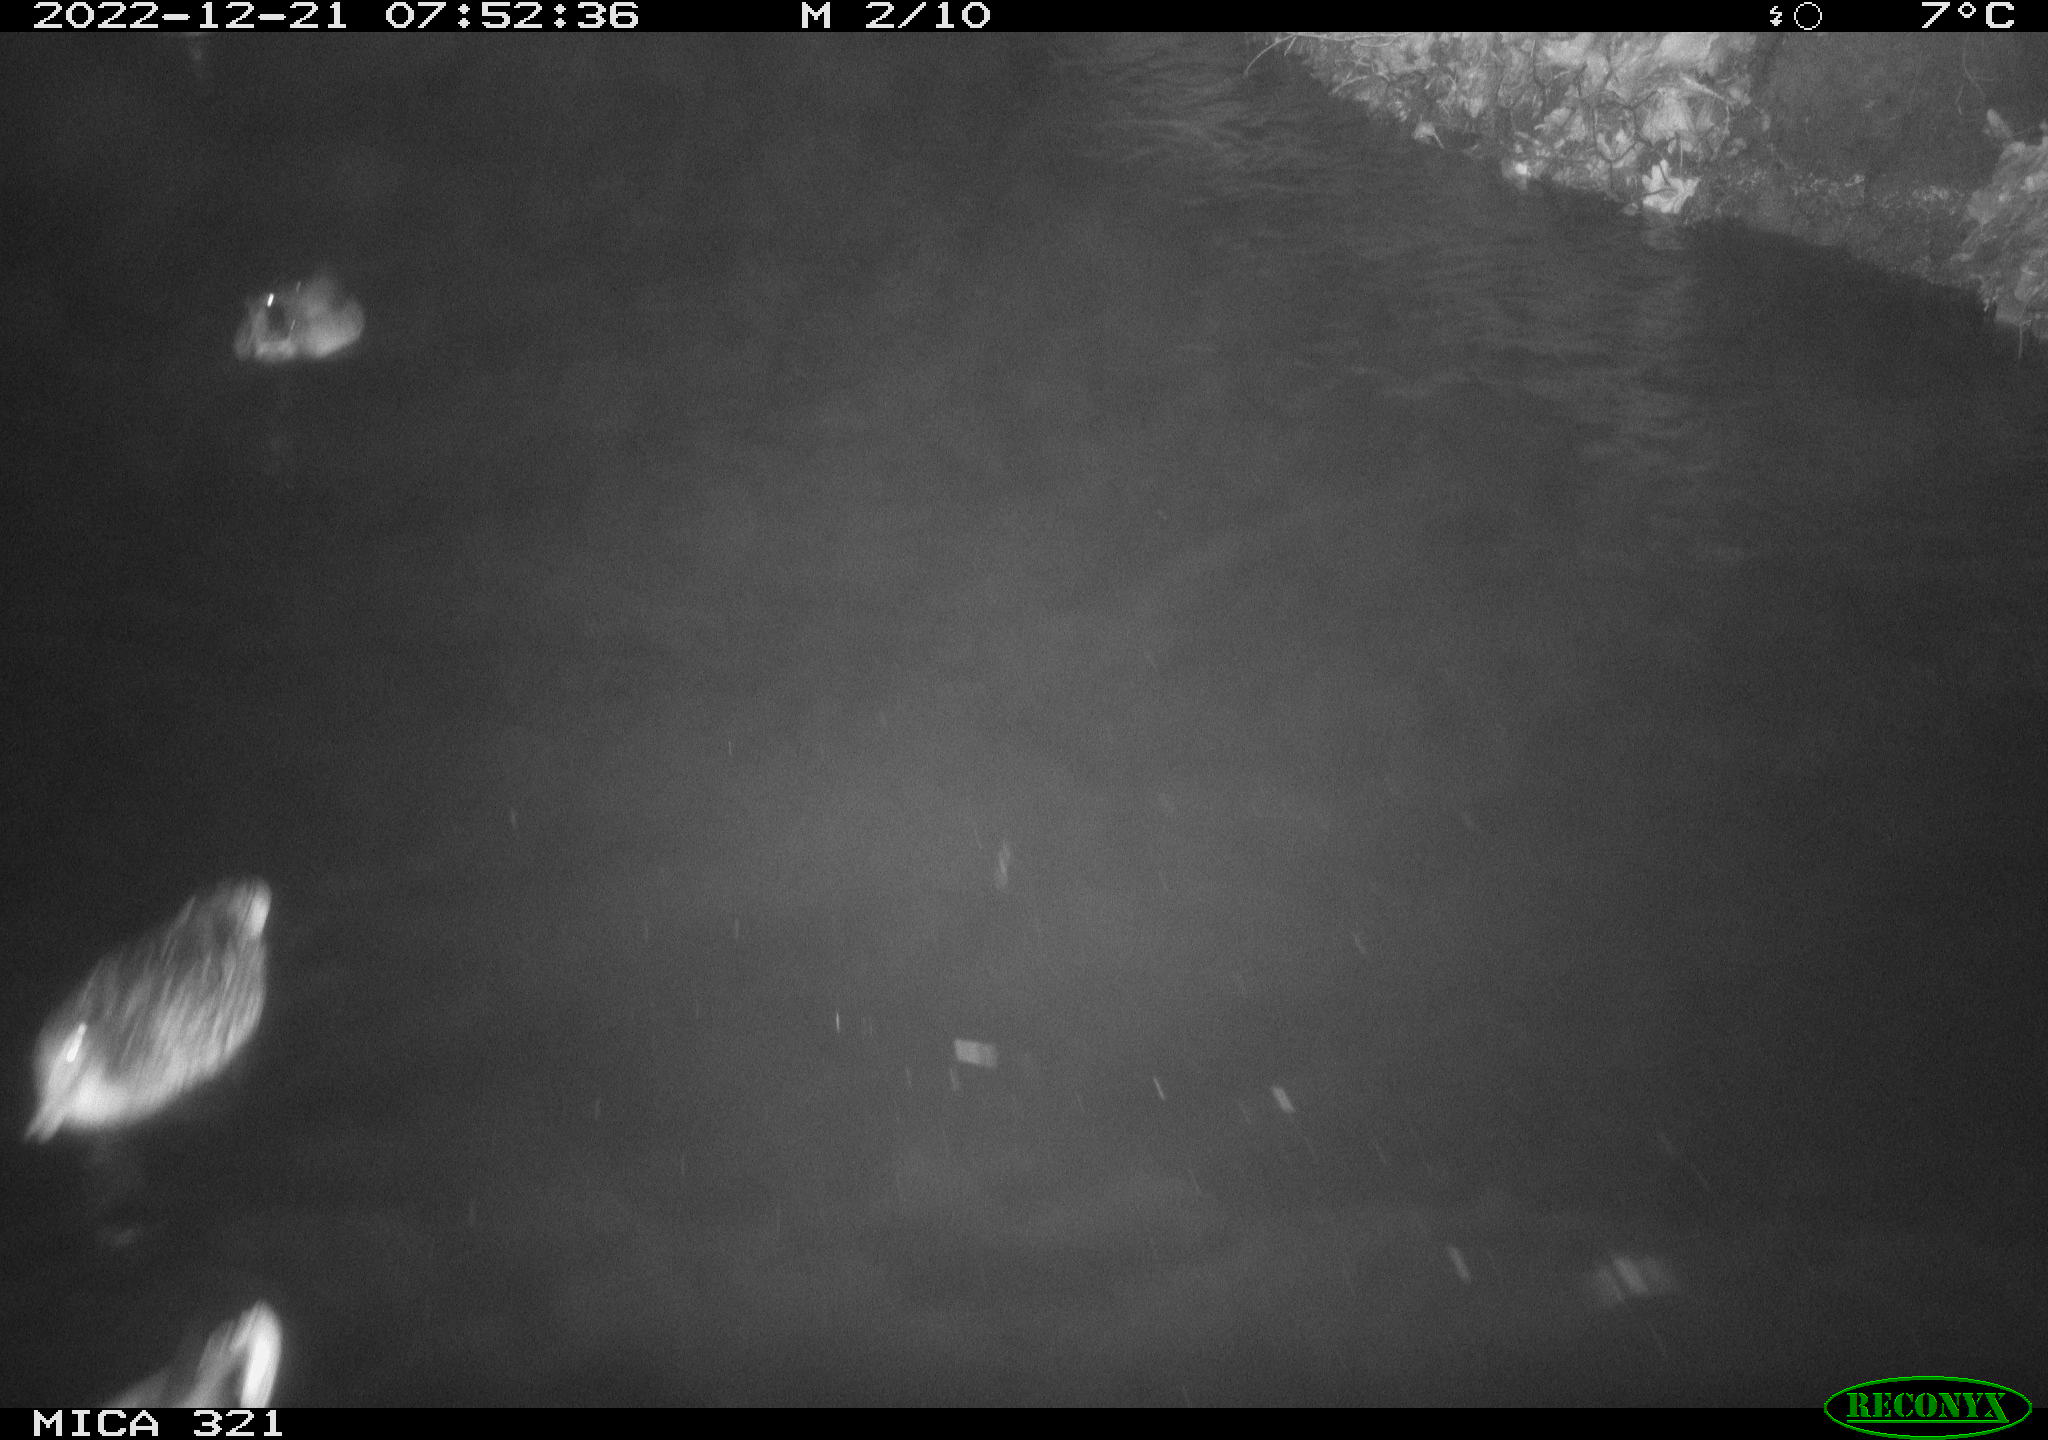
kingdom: Animalia
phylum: Chordata
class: Aves
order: Anseriformes
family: Anatidae
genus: Anas
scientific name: Anas
